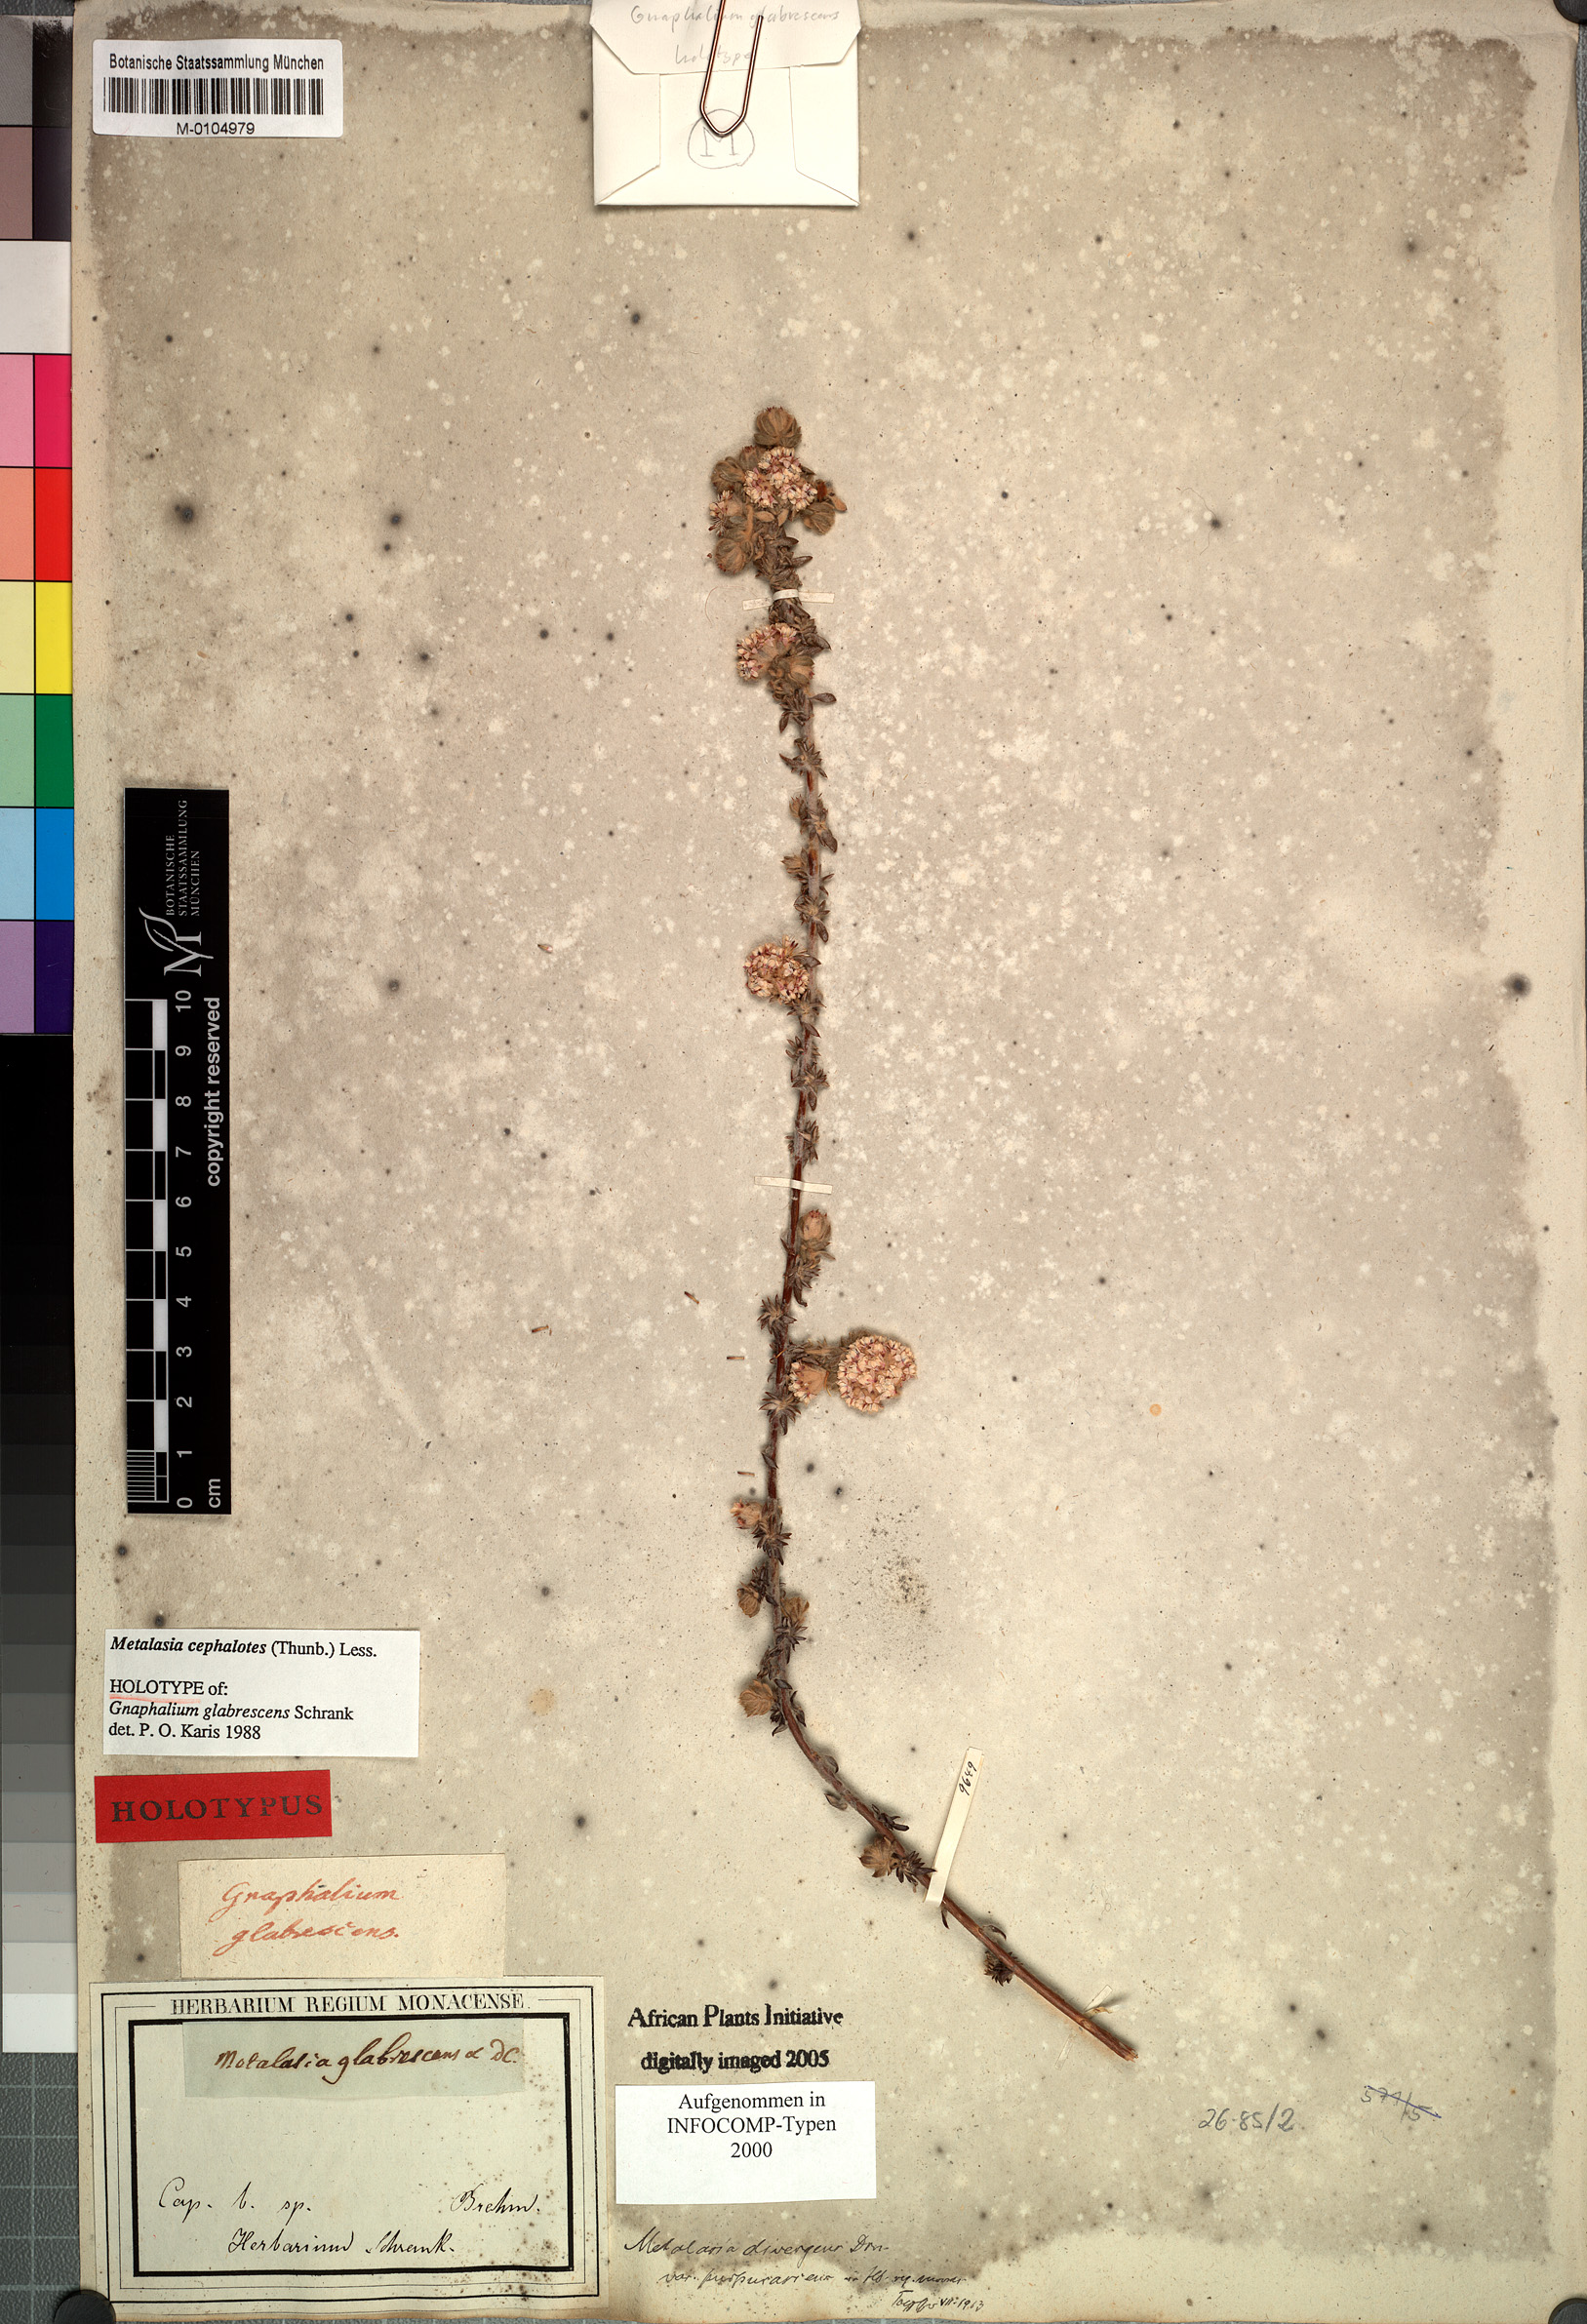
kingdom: Plantae
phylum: Tracheophyta
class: Magnoliopsida
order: Asterales
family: Asteraceae
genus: Metalasia
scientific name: Metalasia cephalotes
